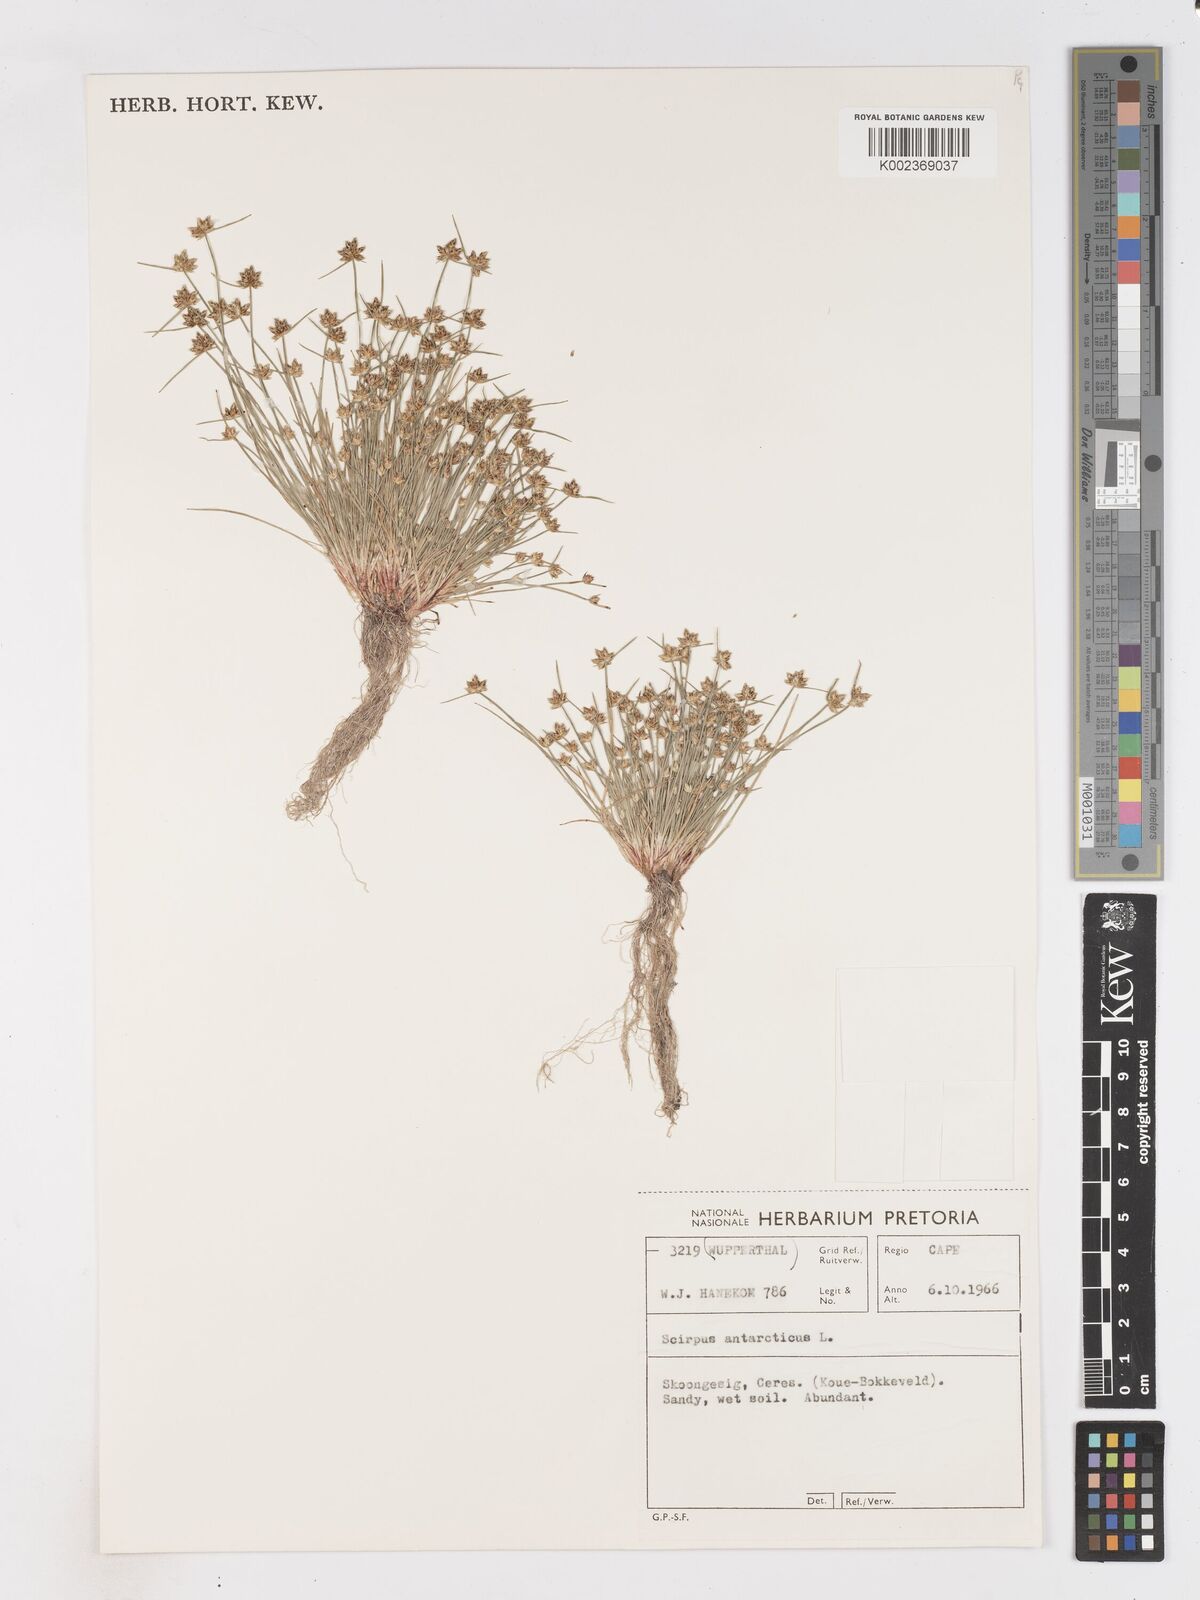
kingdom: Plantae
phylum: Tracheophyta
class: Liliopsida
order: Poales
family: Cyperaceae
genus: Isolepis
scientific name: Isolepis diabolica
